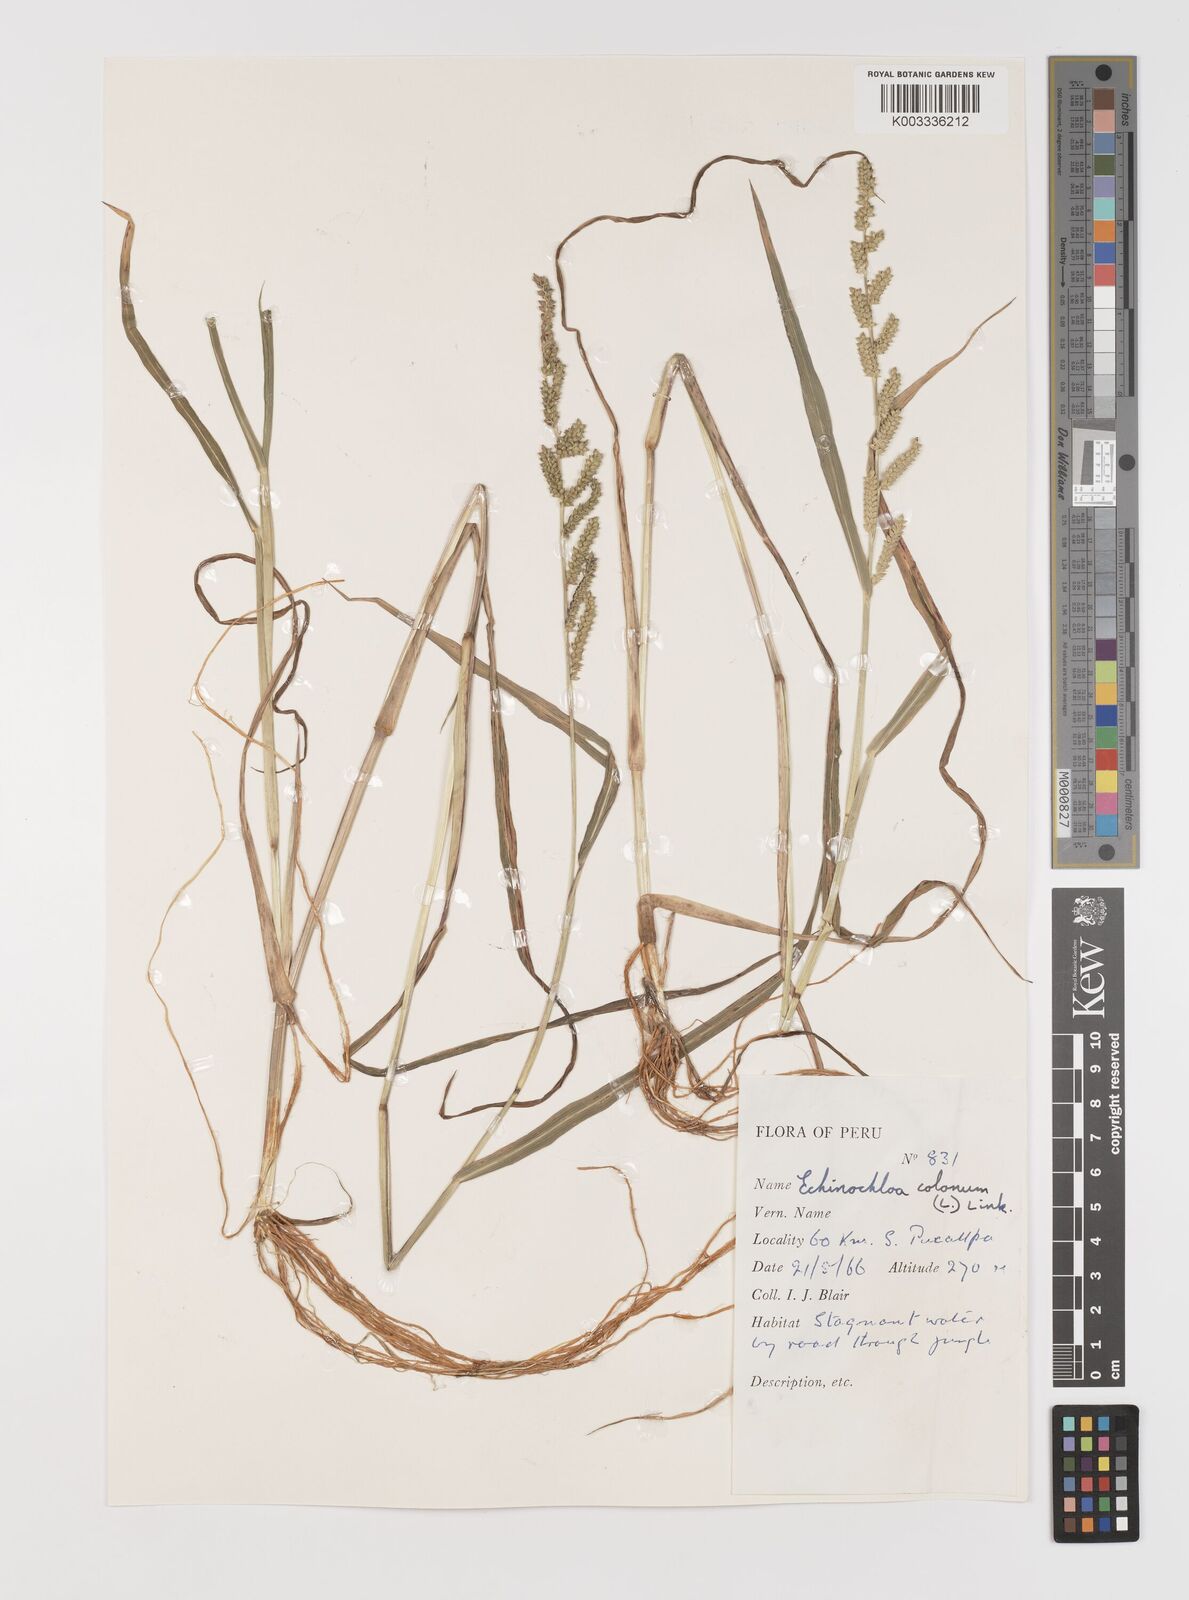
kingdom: Plantae
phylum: Tracheophyta
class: Liliopsida
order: Poales
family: Poaceae
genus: Echinochloa
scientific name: Echinochloa colonum
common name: Jungle rice
